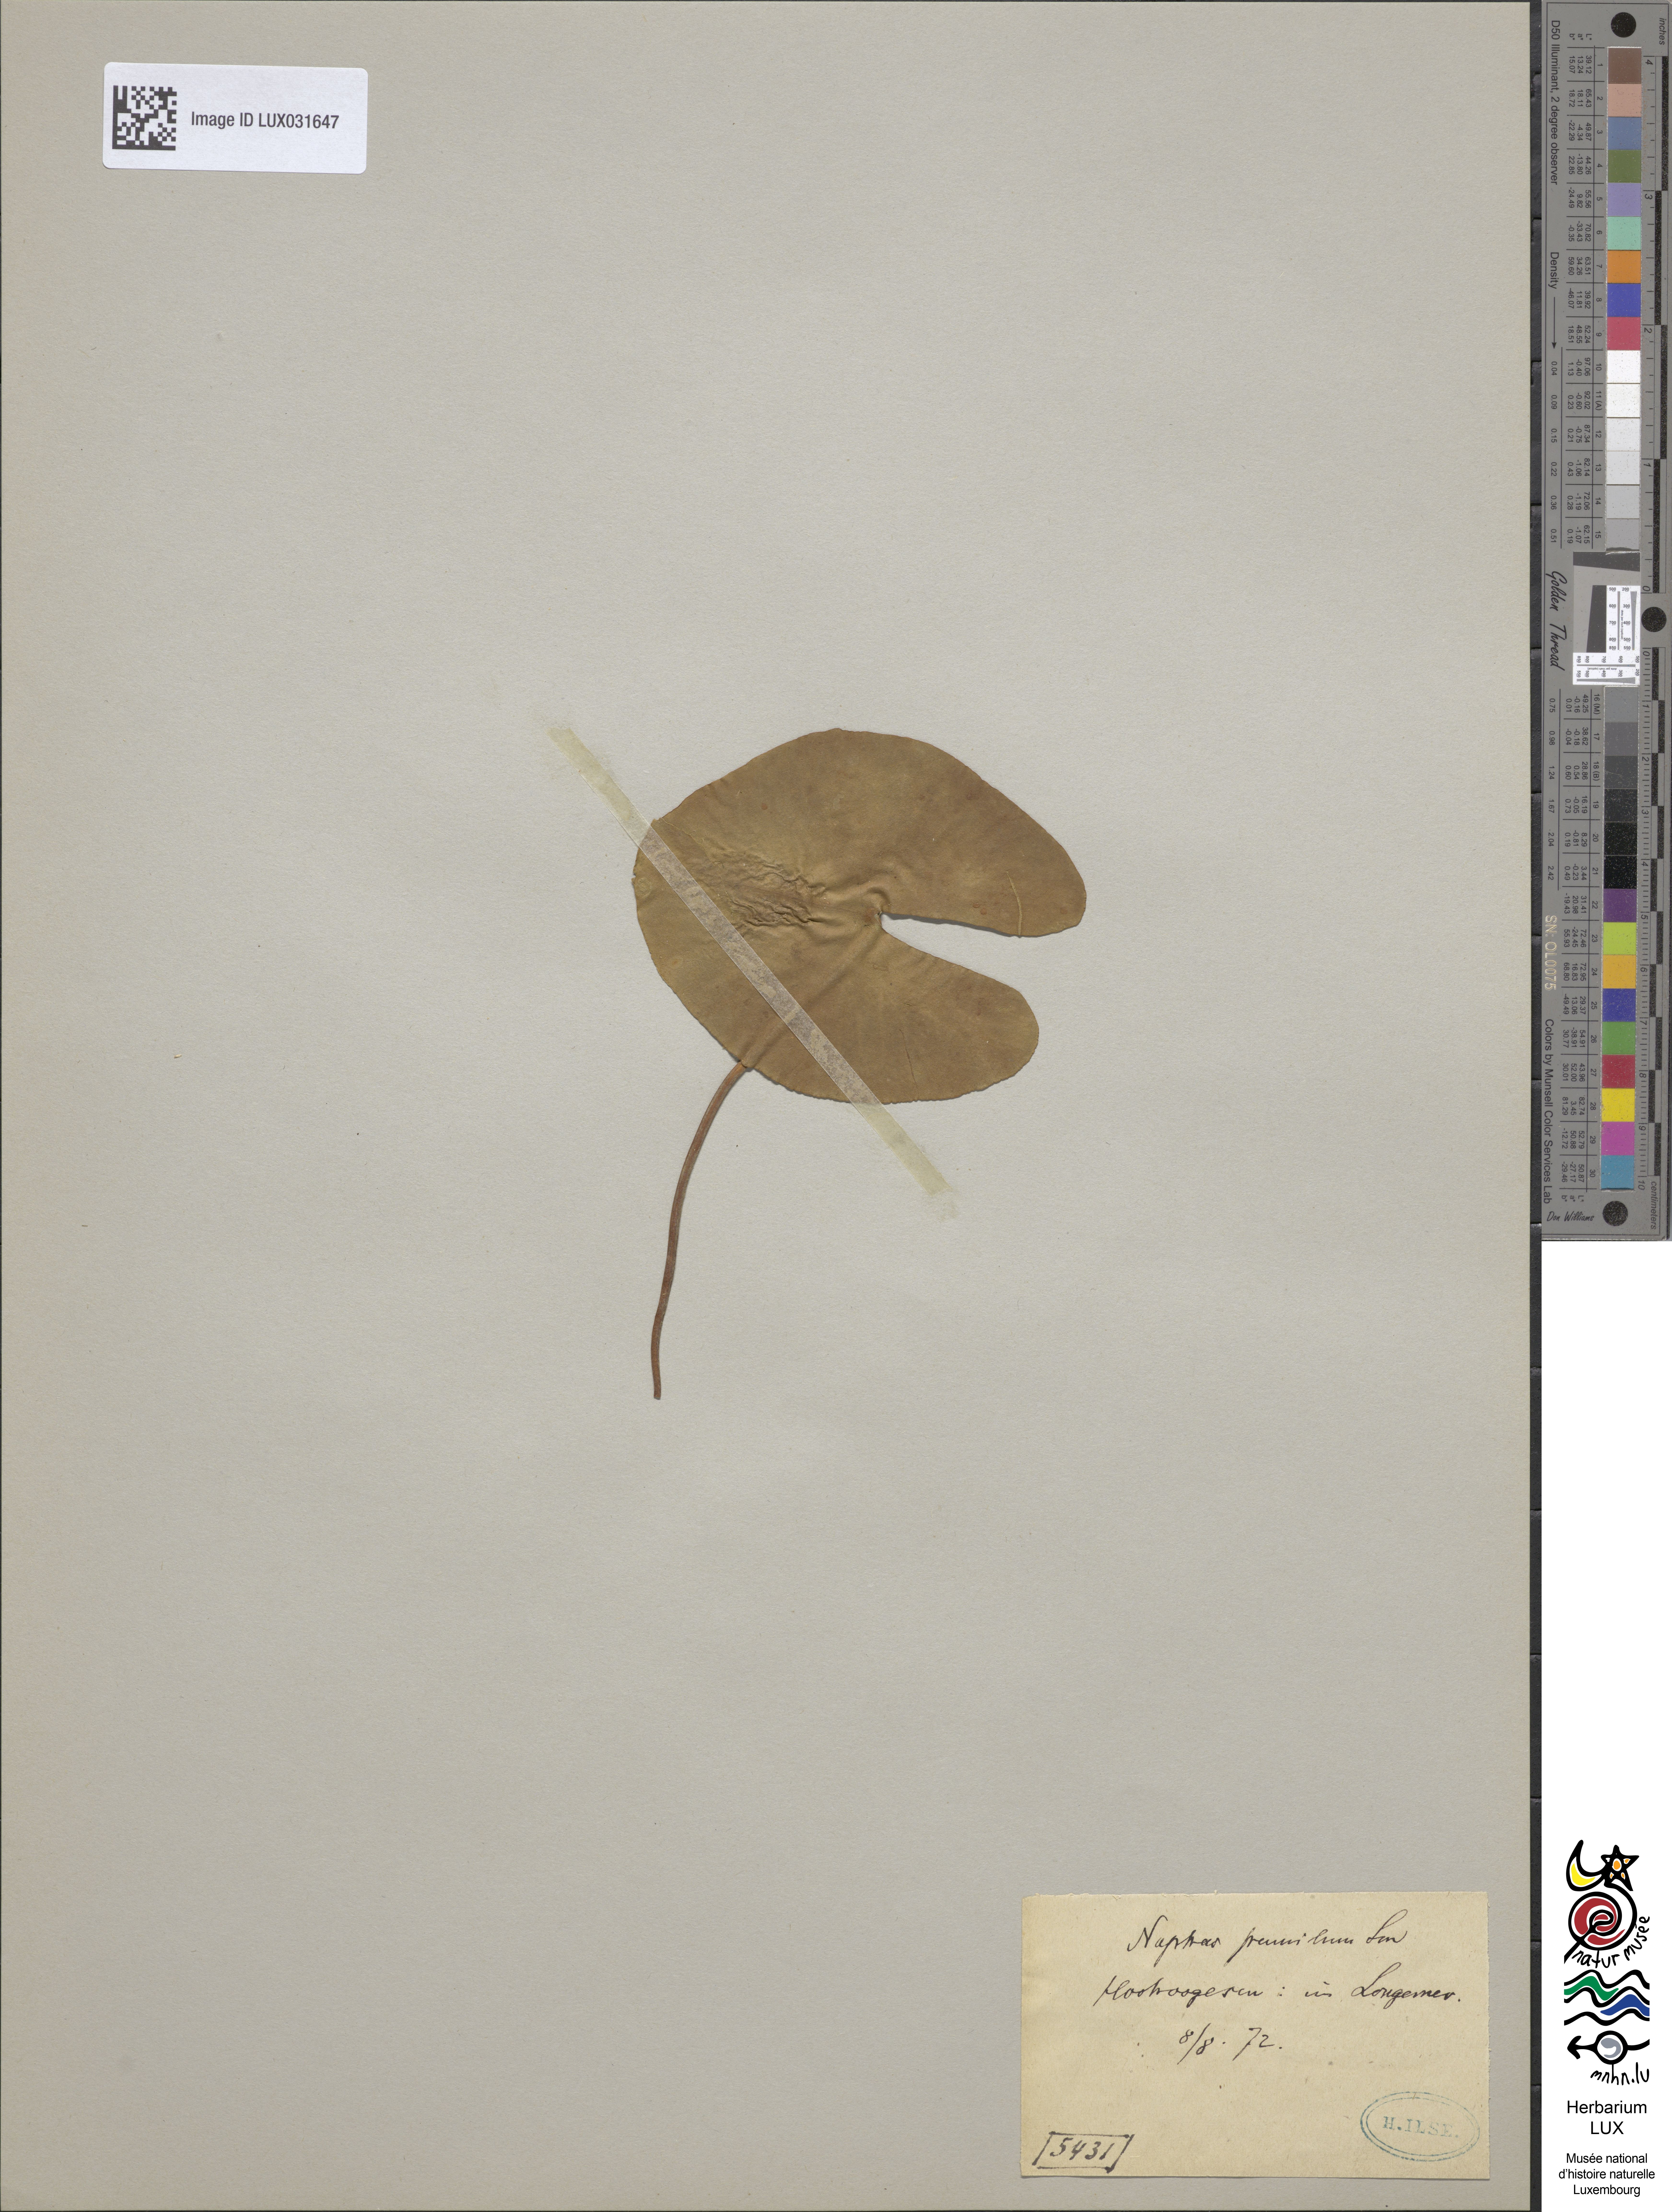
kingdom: Plantae
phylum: Tracheophyta
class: Magnoliopsida
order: Nymphaeales
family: Nymphaeaceae
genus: Nuphar
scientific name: Nuphar pumila
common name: Least water-lily
